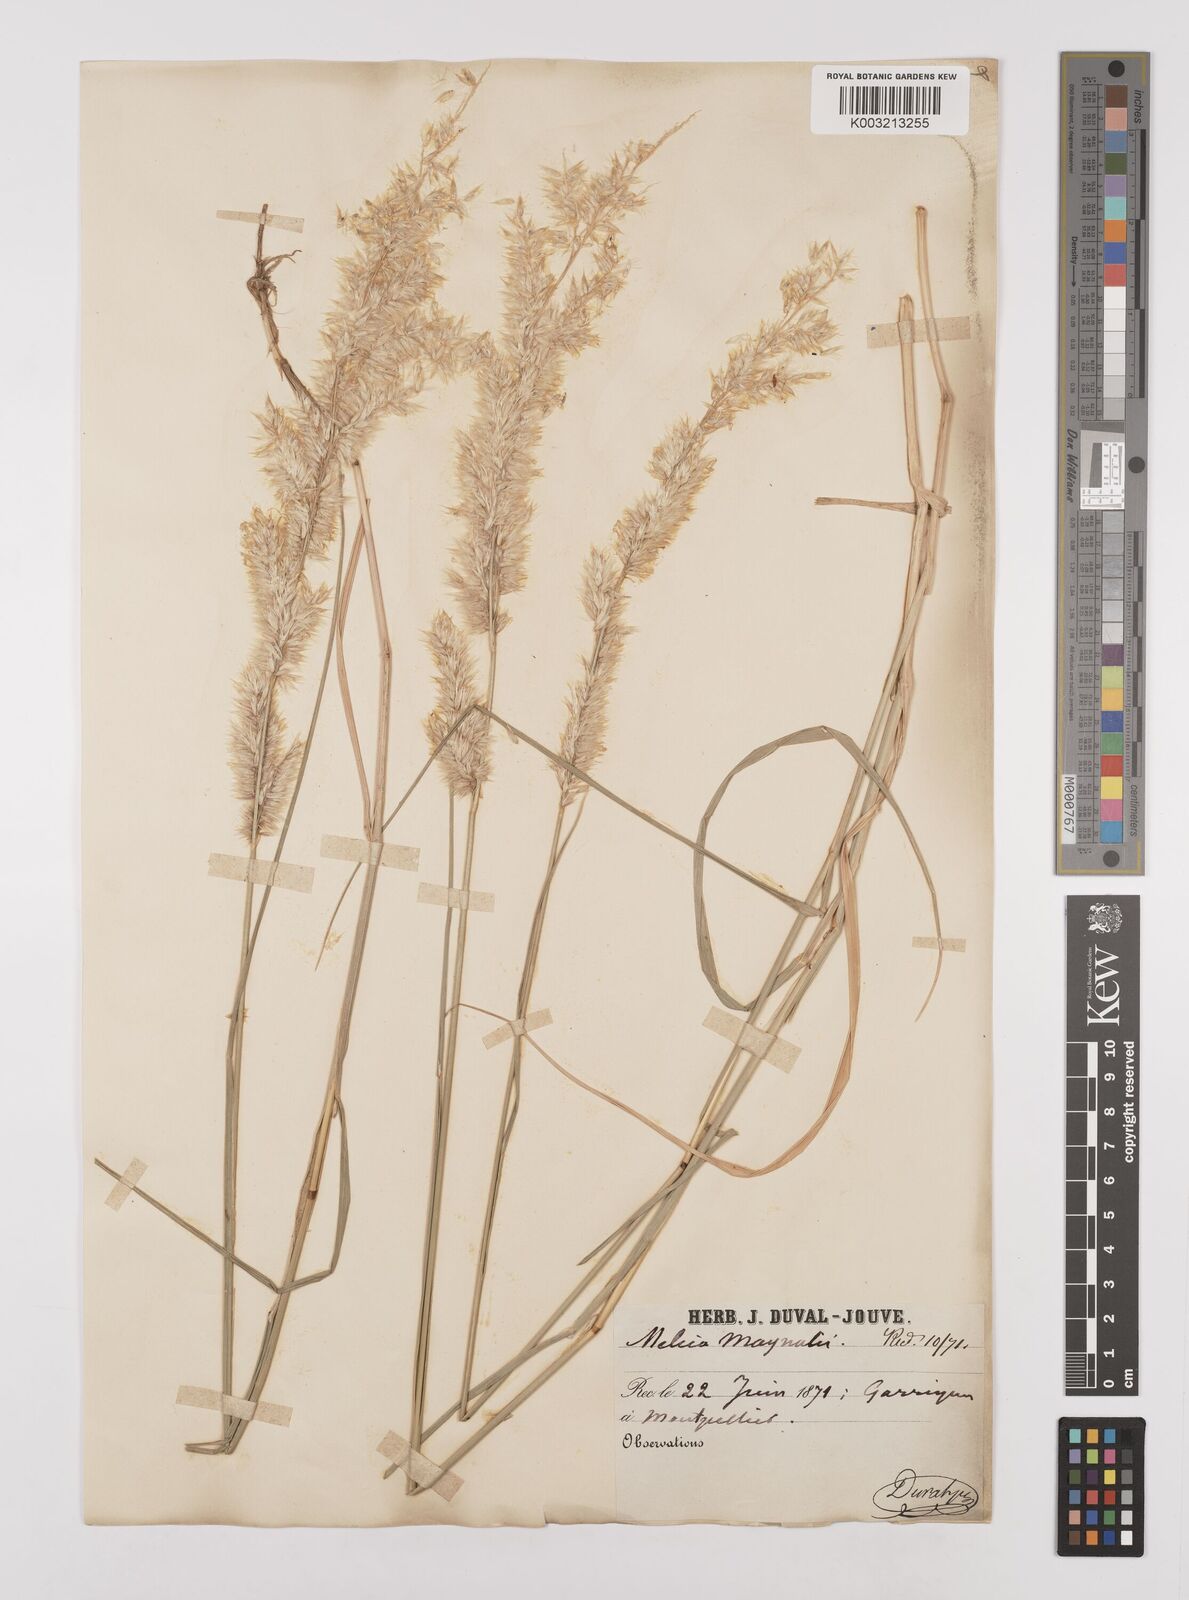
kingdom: Plantae
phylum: Tracheophyta
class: Liliopsida
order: Poales
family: Poaceae
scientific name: Poaceae
